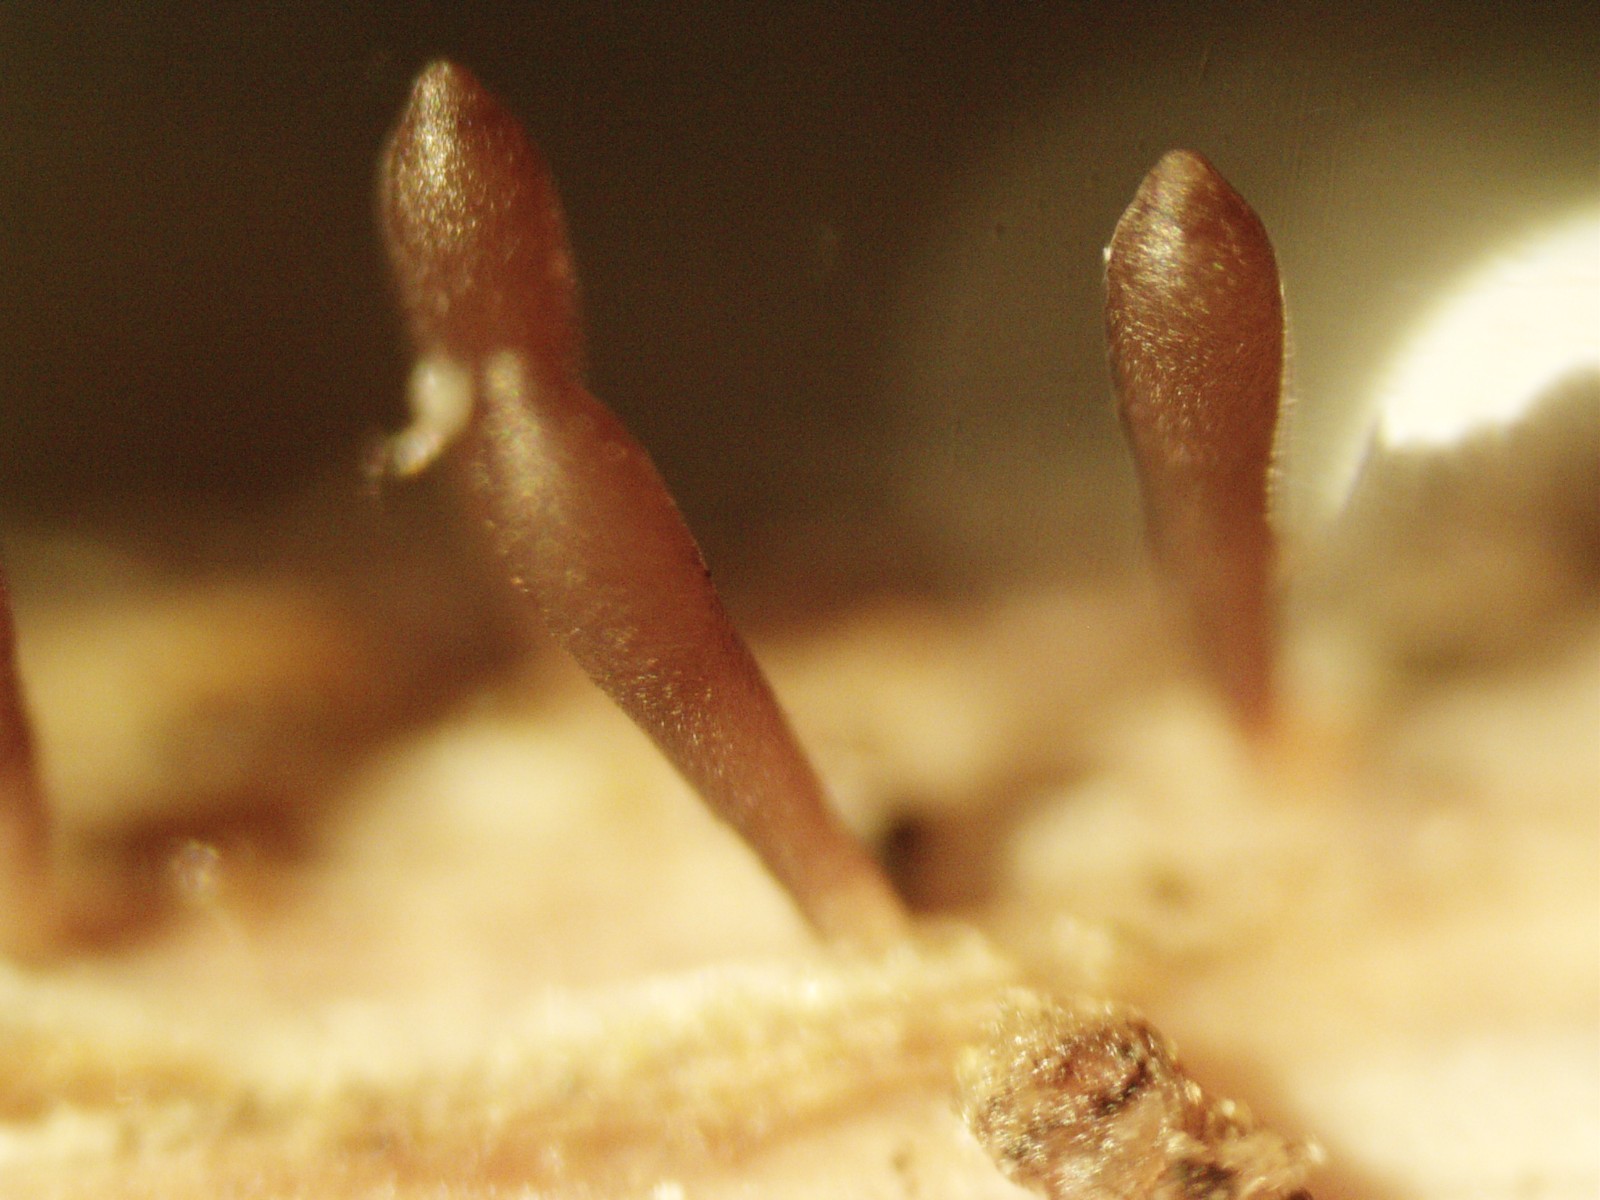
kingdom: Fungi
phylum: Ascomycota
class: Dothideomycetes
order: Acrospermales
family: Acrospermaceae
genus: Acrospermum
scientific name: Acrospermum compressum
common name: nælde-stængeltunge
